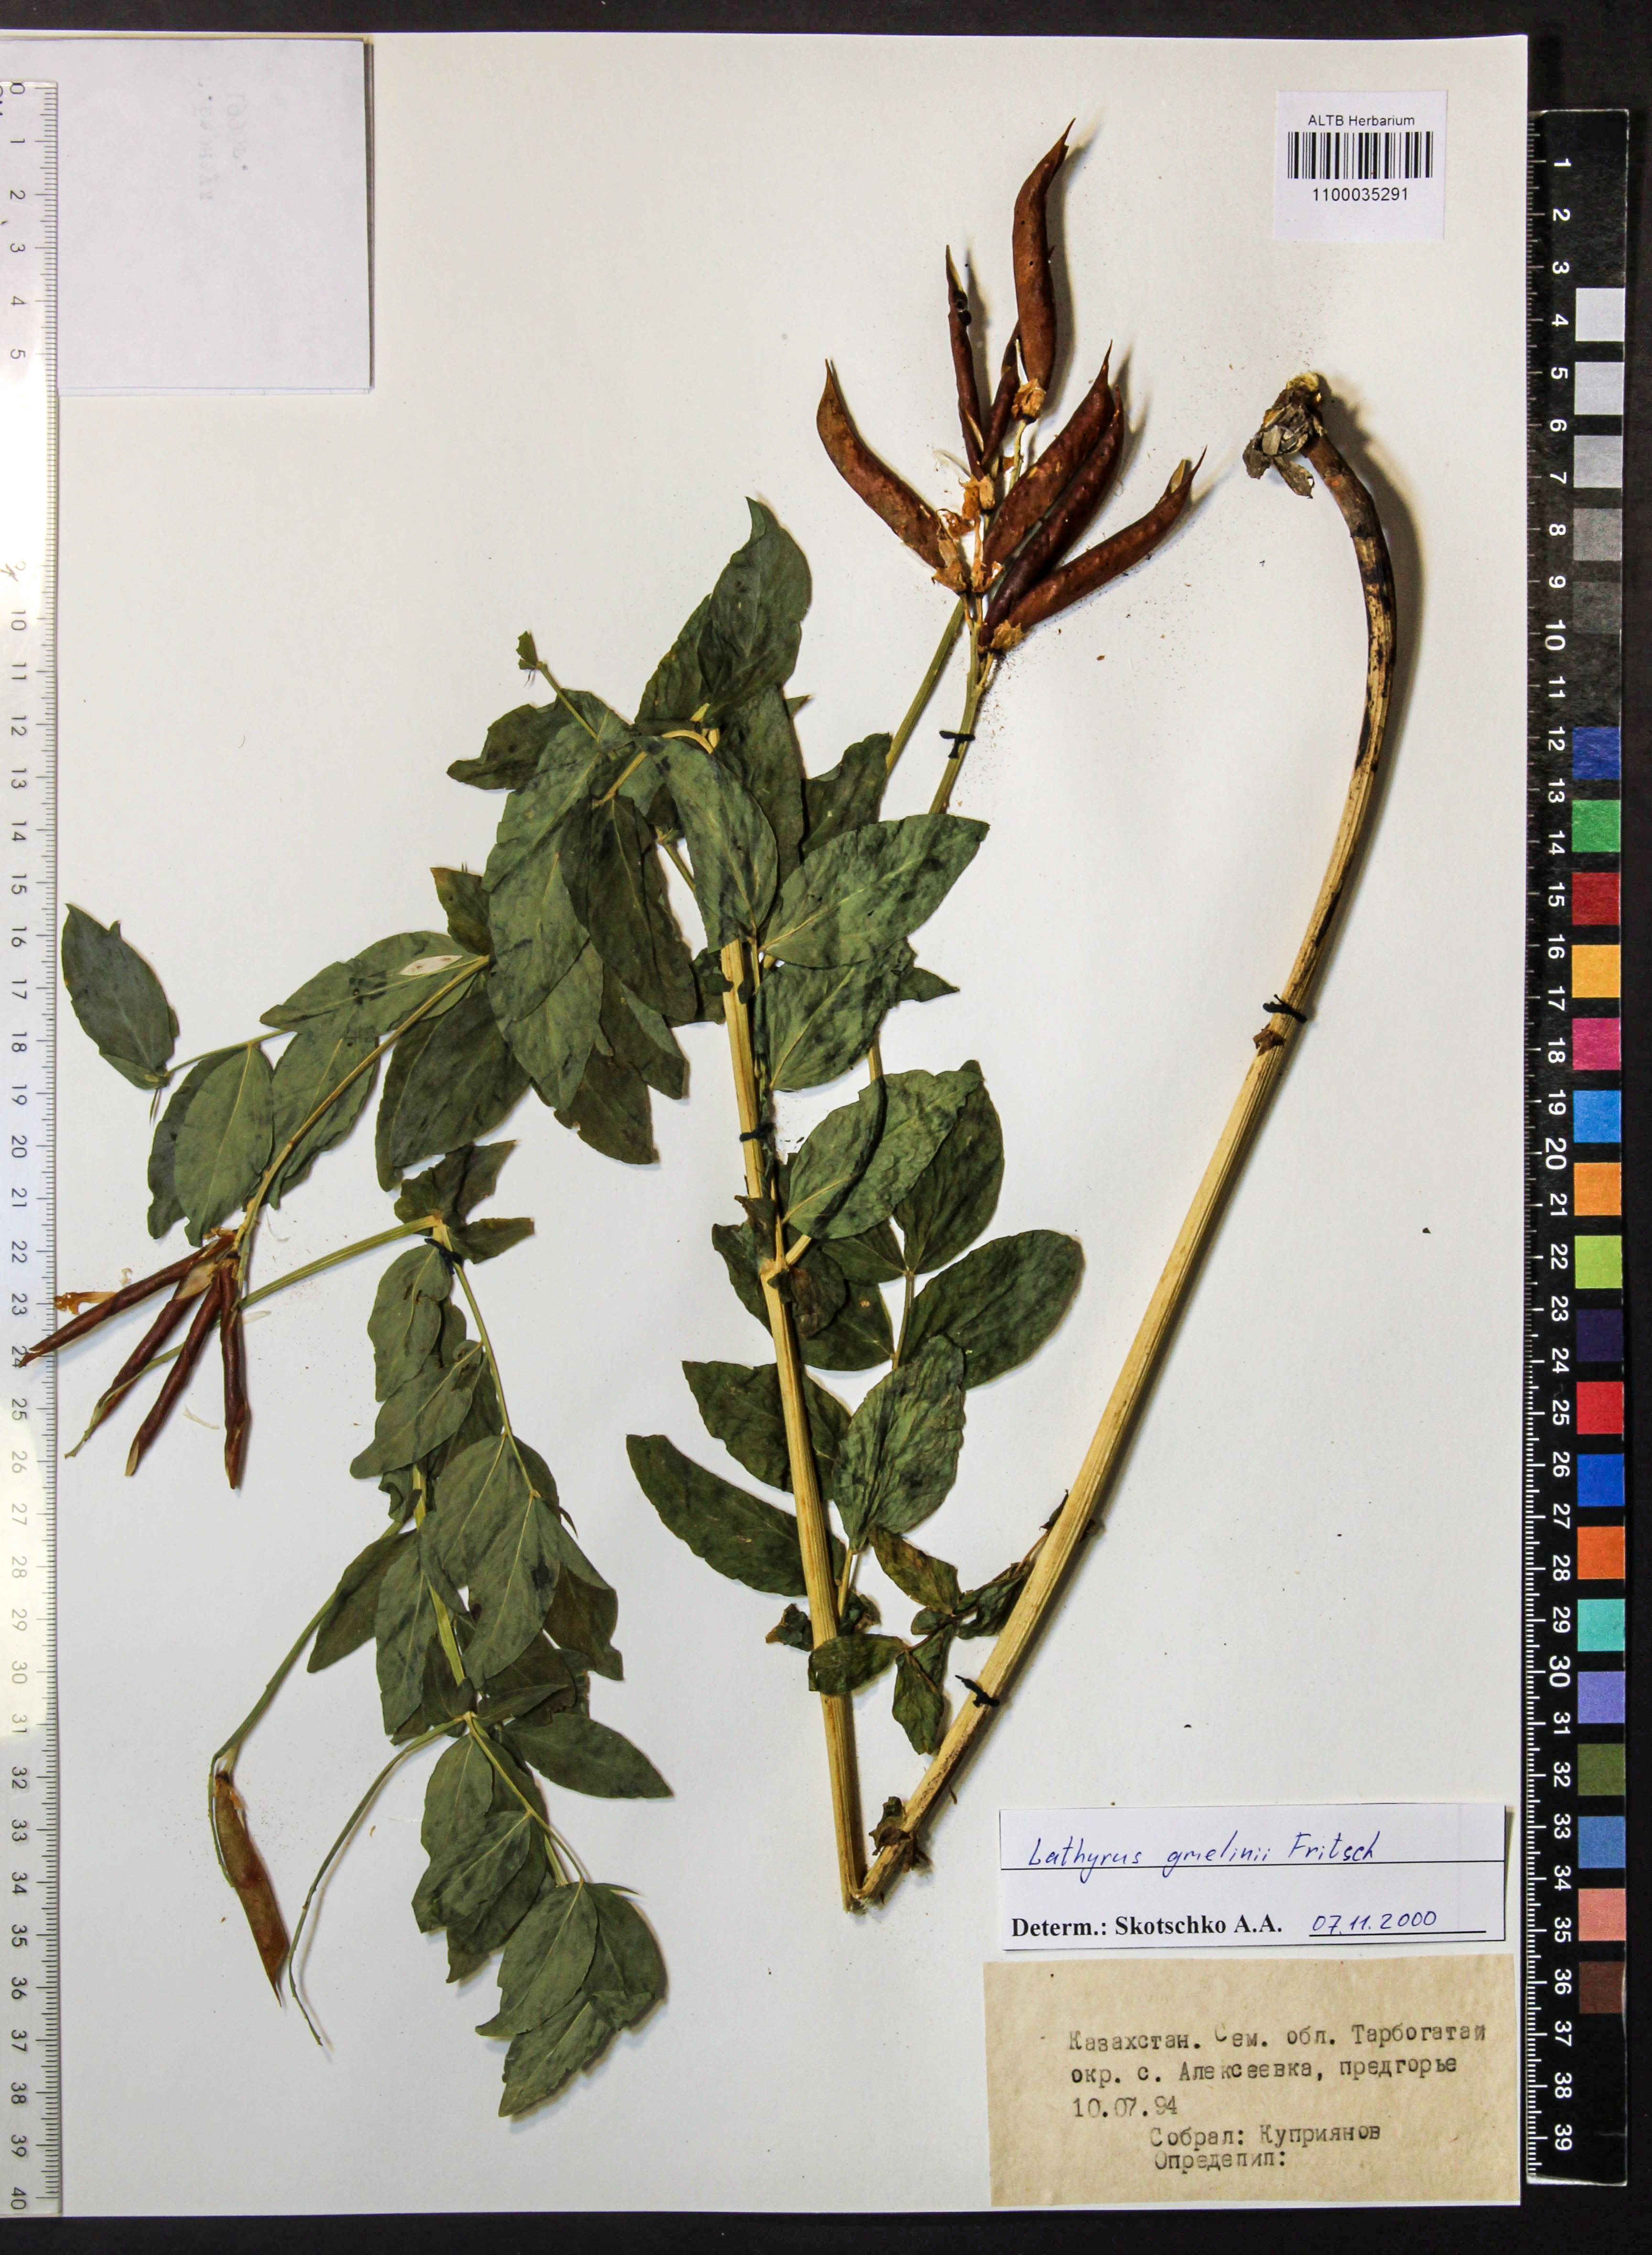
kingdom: Plantae
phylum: Tracheophyta
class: Magnoliopsida
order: Fabales
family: Fabaceae
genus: Lathyrus
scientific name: Lathyrus gmelinii
